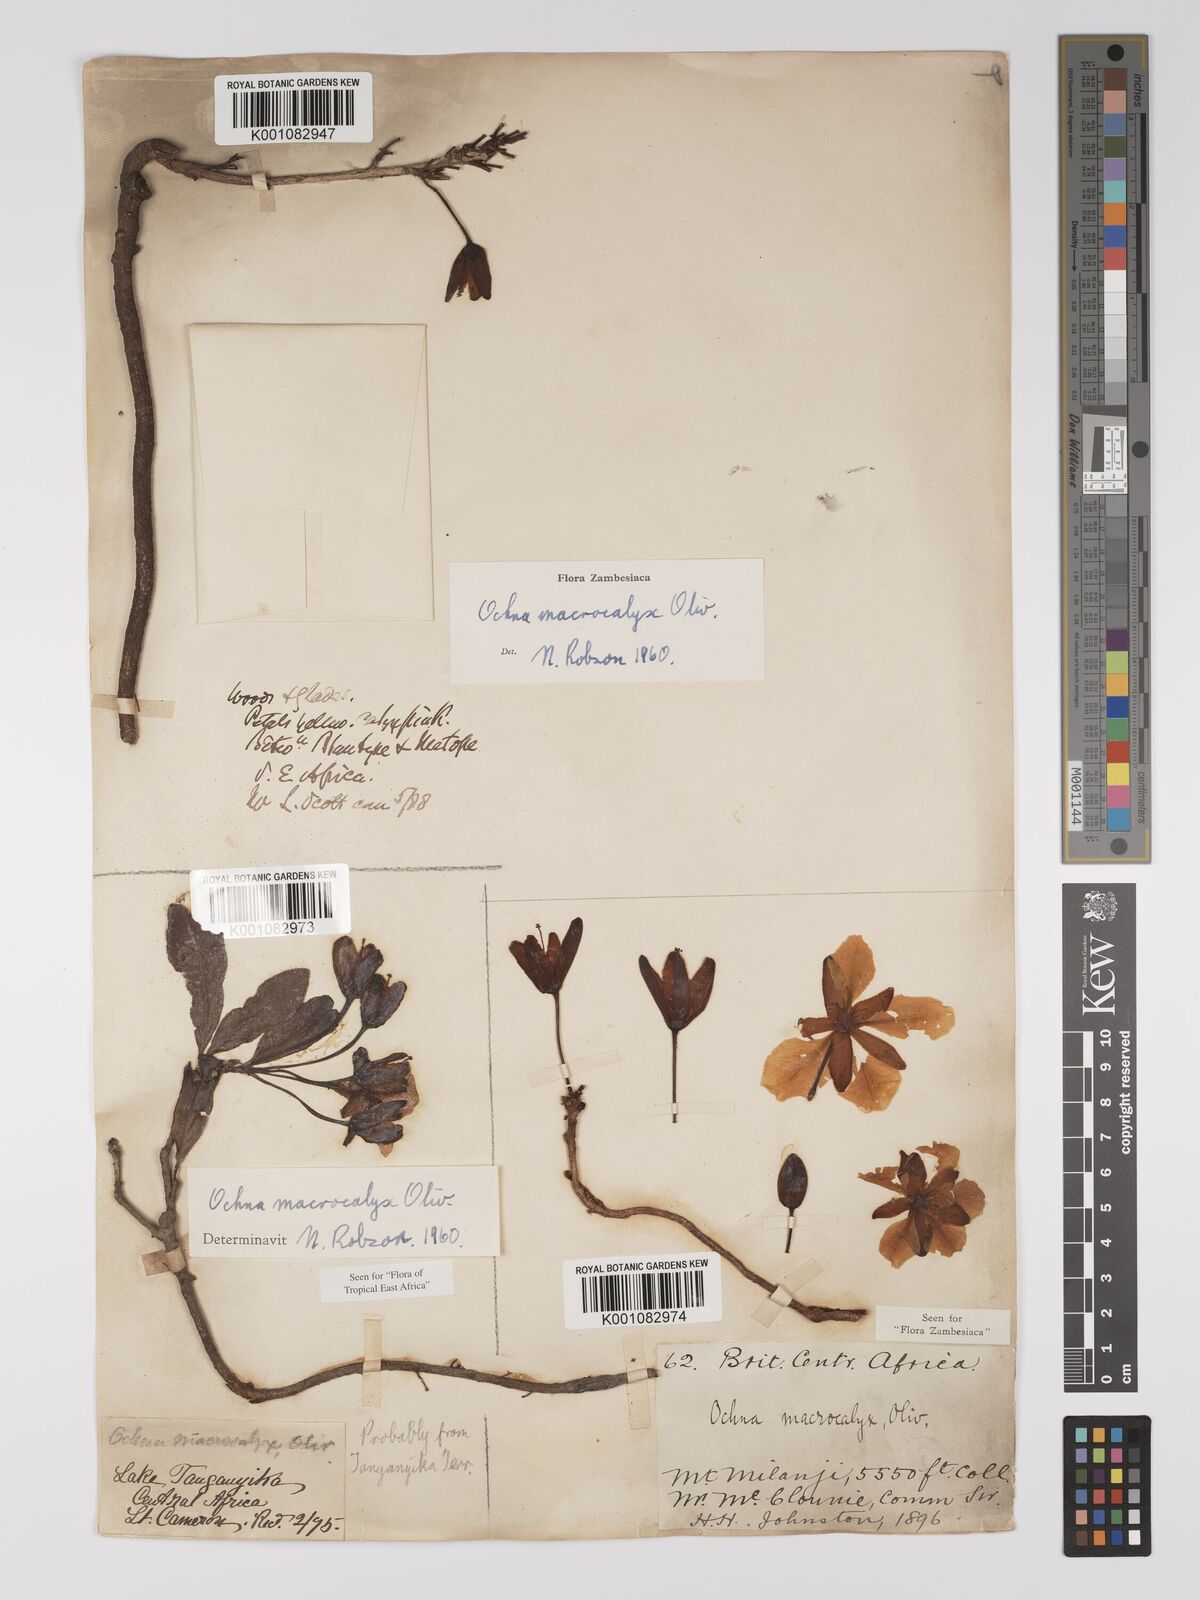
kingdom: Plantae
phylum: Tracheophyta
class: Magnoliopsida
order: Malpighiales
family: Ochnaceae
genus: Ochna
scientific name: Ochna macrocalyx
